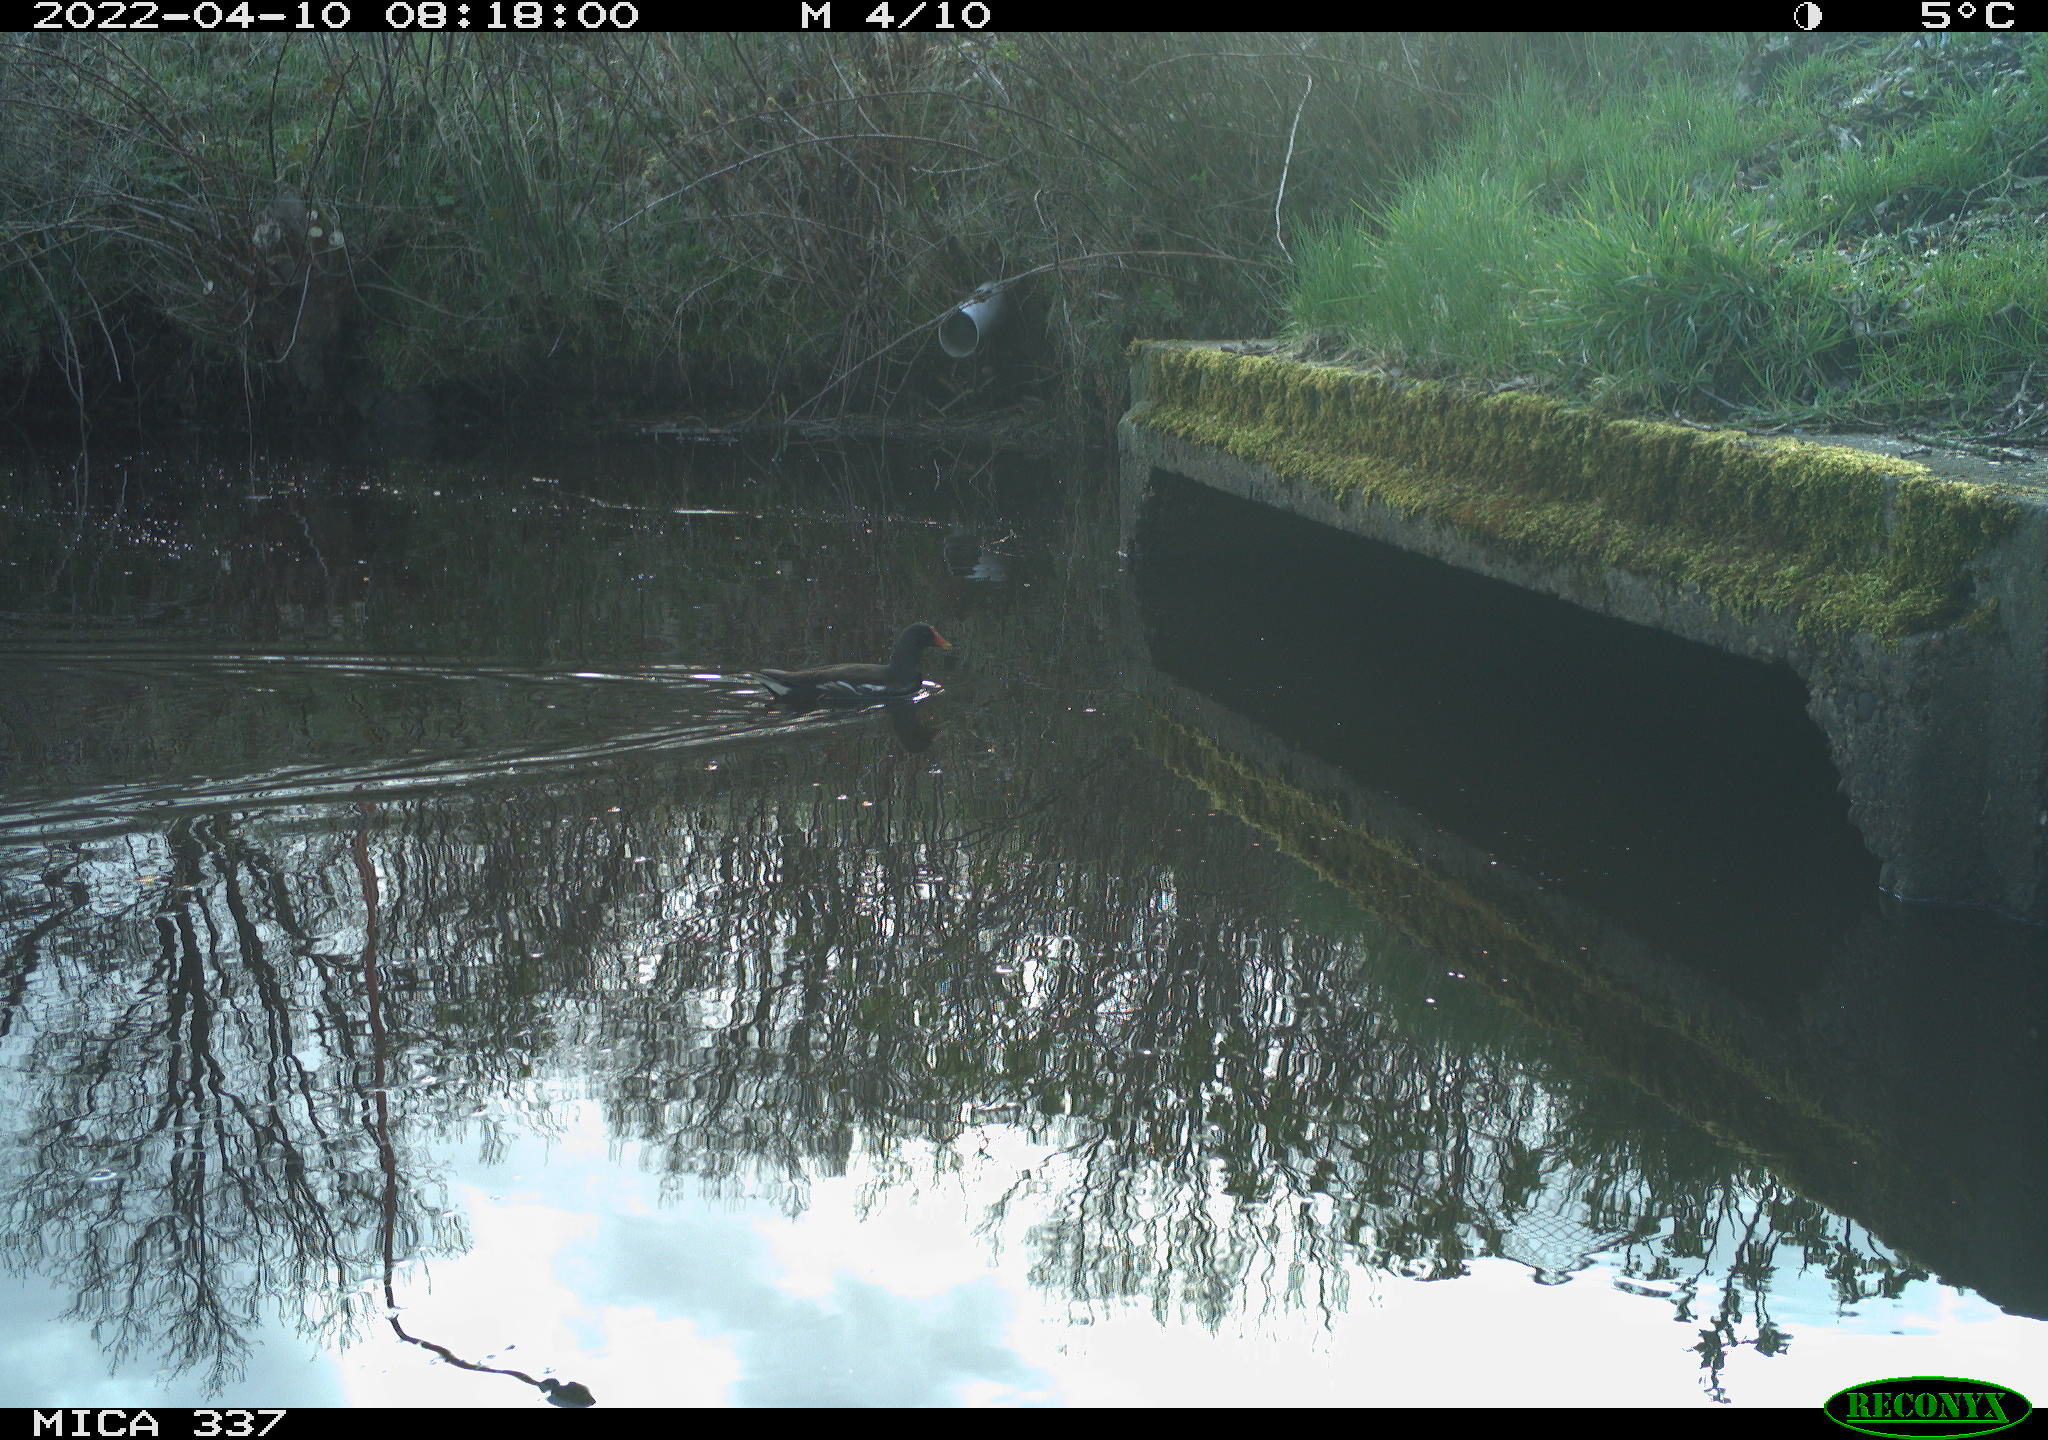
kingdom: Animalia
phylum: Chordata
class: Aves
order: Gruiformes
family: Rallidae
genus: Gallinula
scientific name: Gallinula chloropus
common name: Common moorhen
